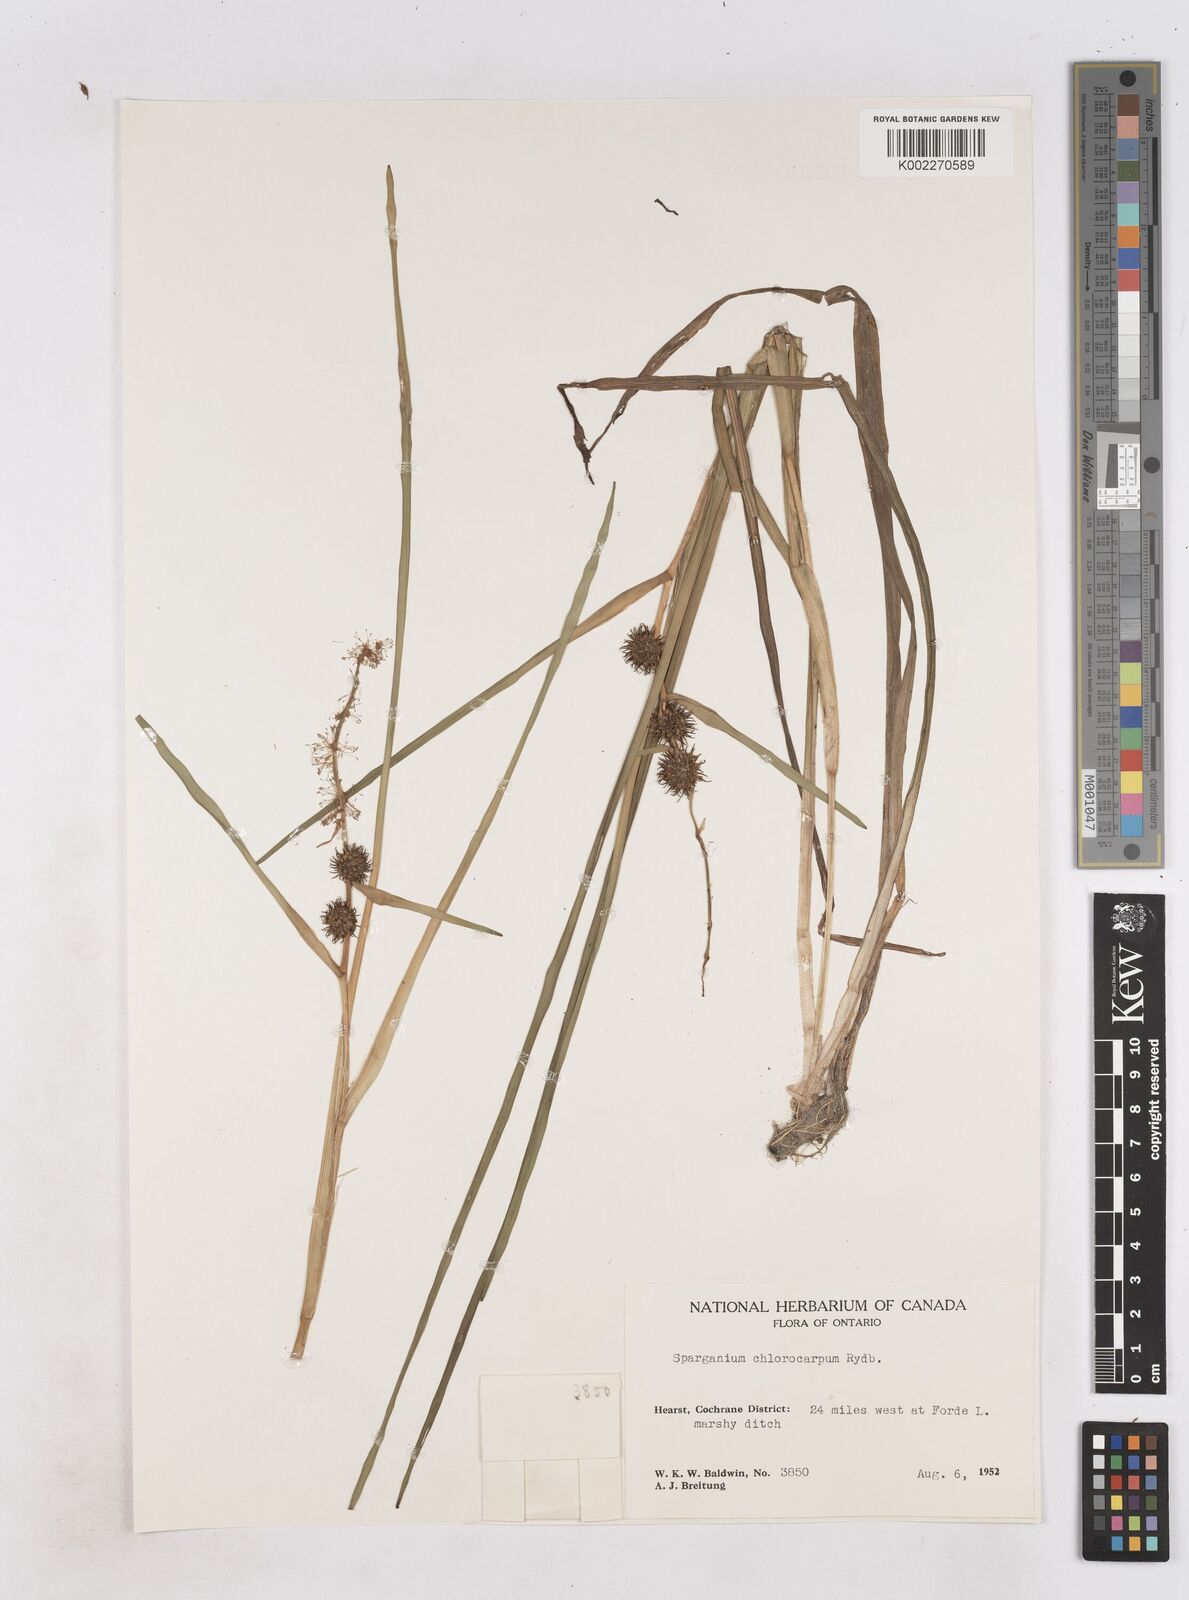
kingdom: Plantae
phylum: Tracheophyta
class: Liliopsida
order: Poales
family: Typhaceae
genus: Sparganium
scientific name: Sparganium emersum
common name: Unbranched bur-reed
